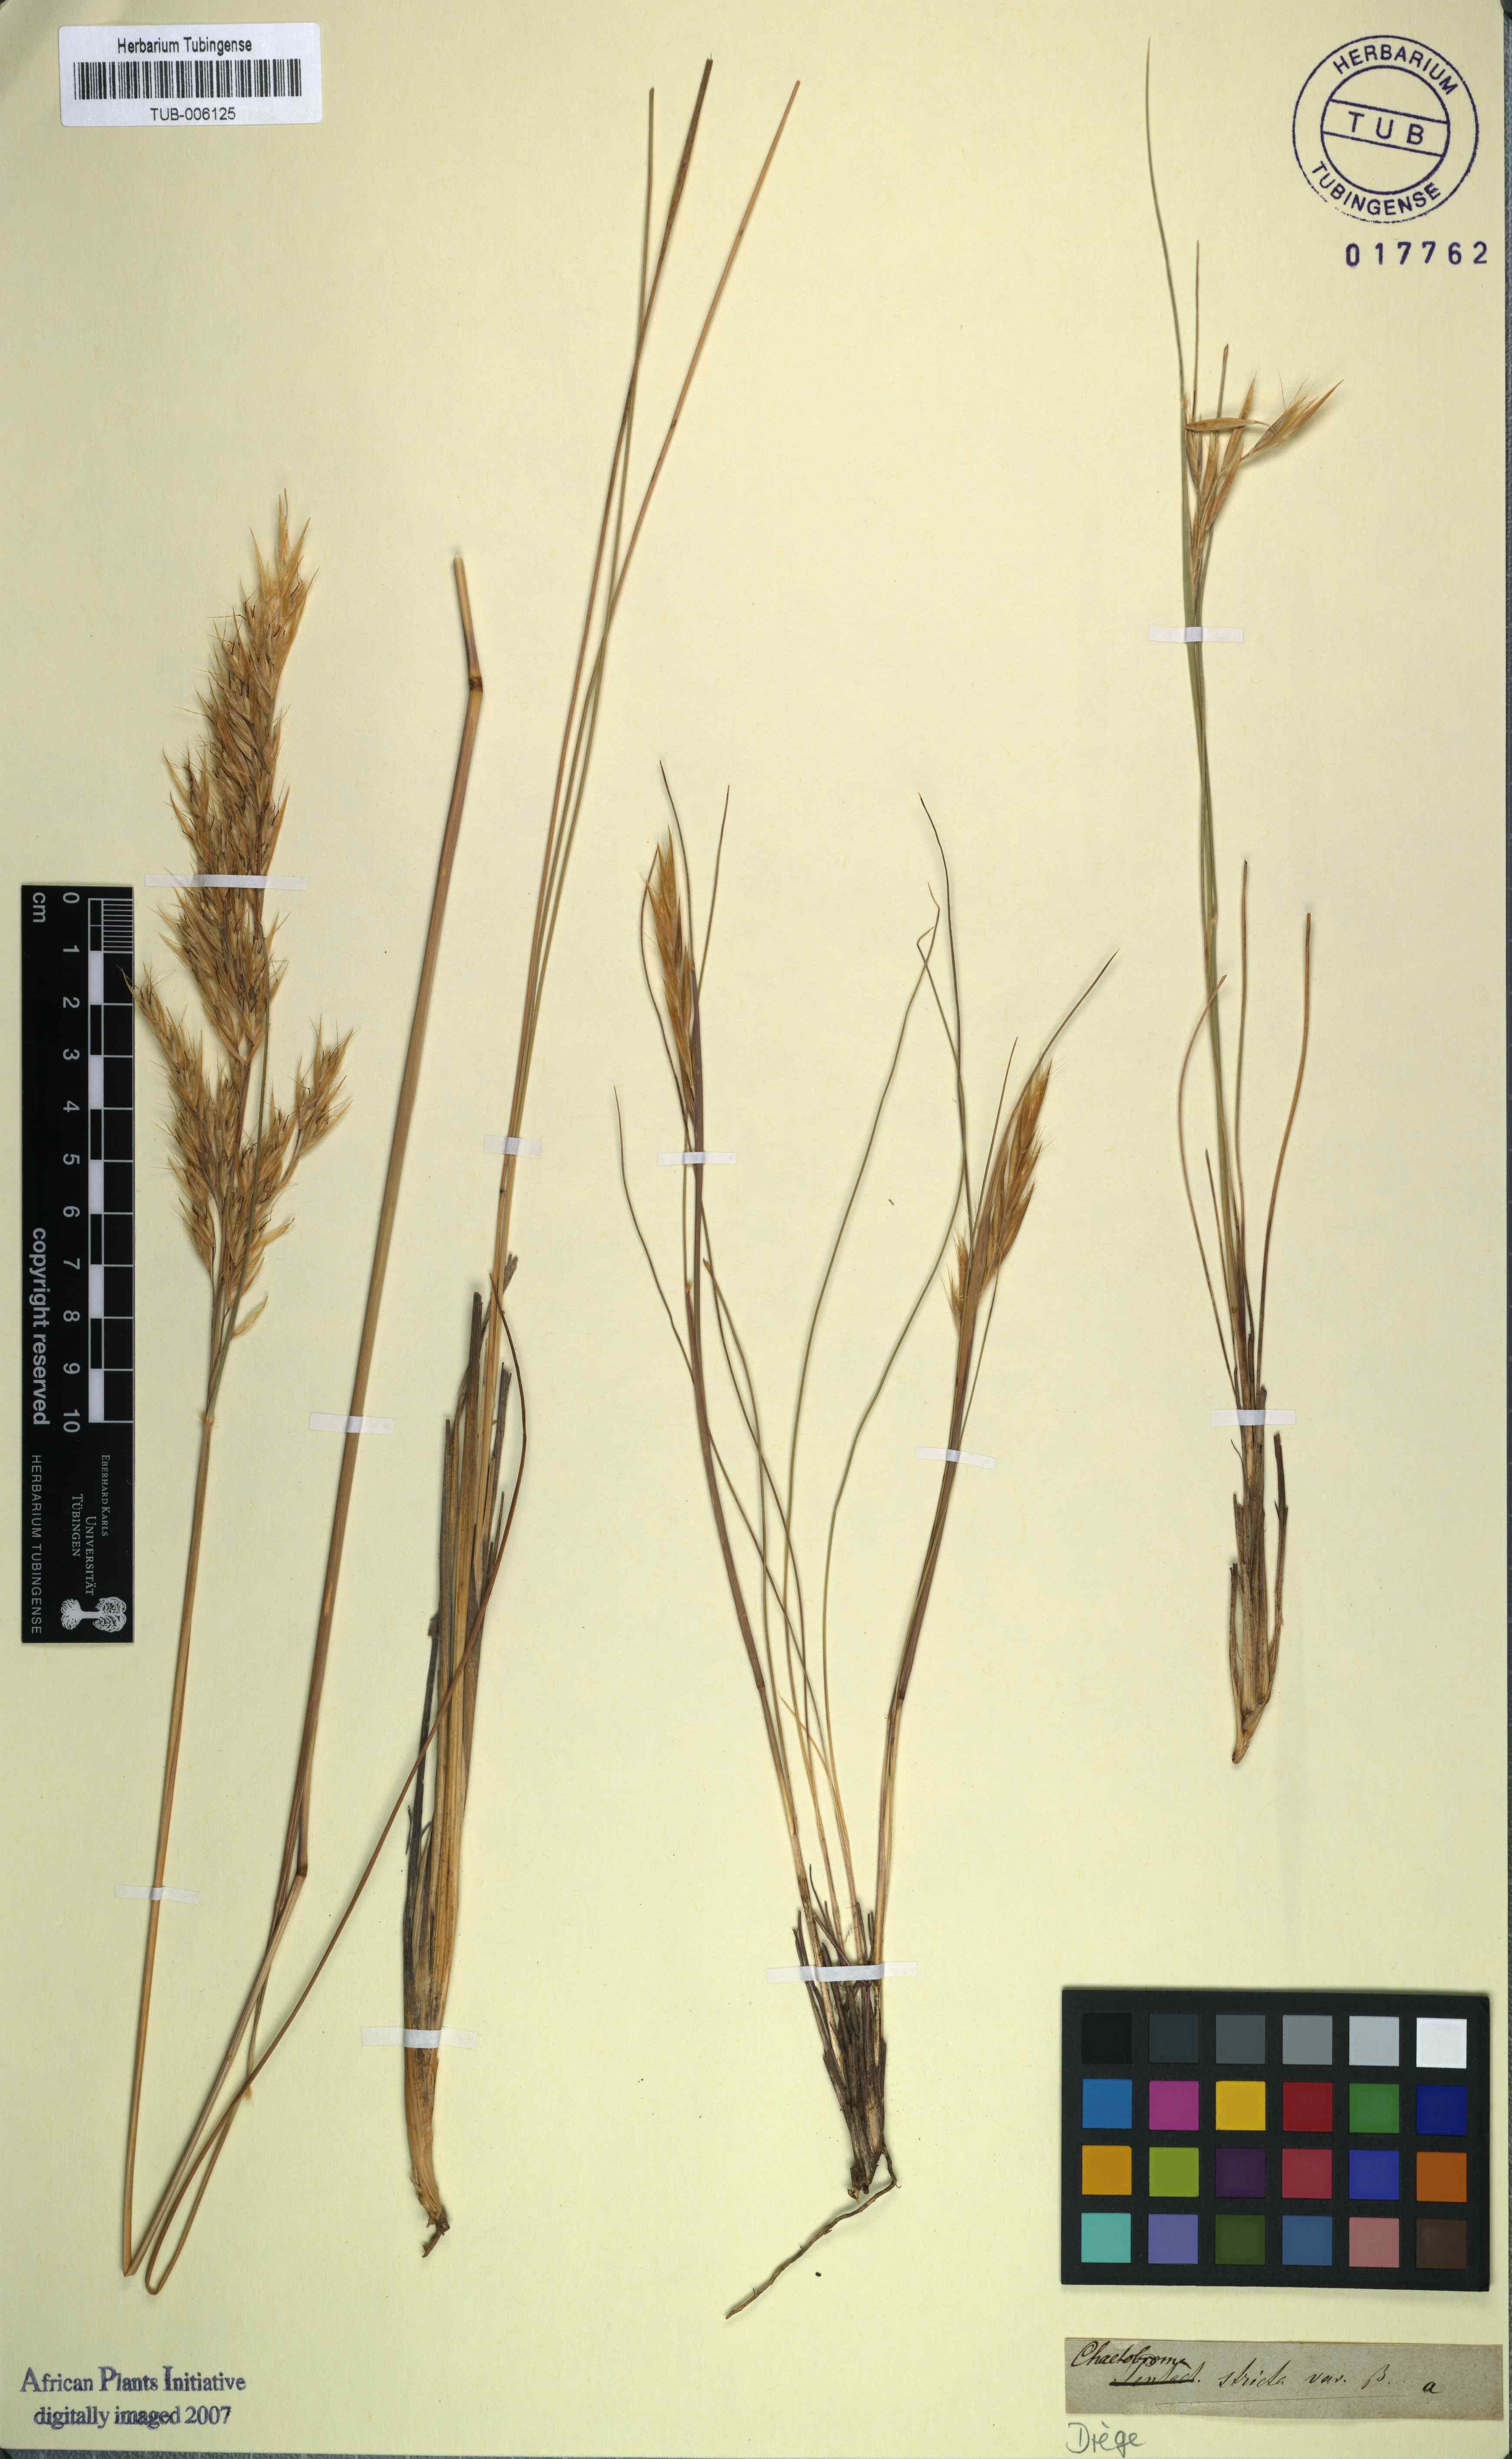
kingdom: Plantae
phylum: Tracheophyta
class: Liliopsida
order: Poales
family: Poaceae
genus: Tenaxia
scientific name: Tenaxia stricta
